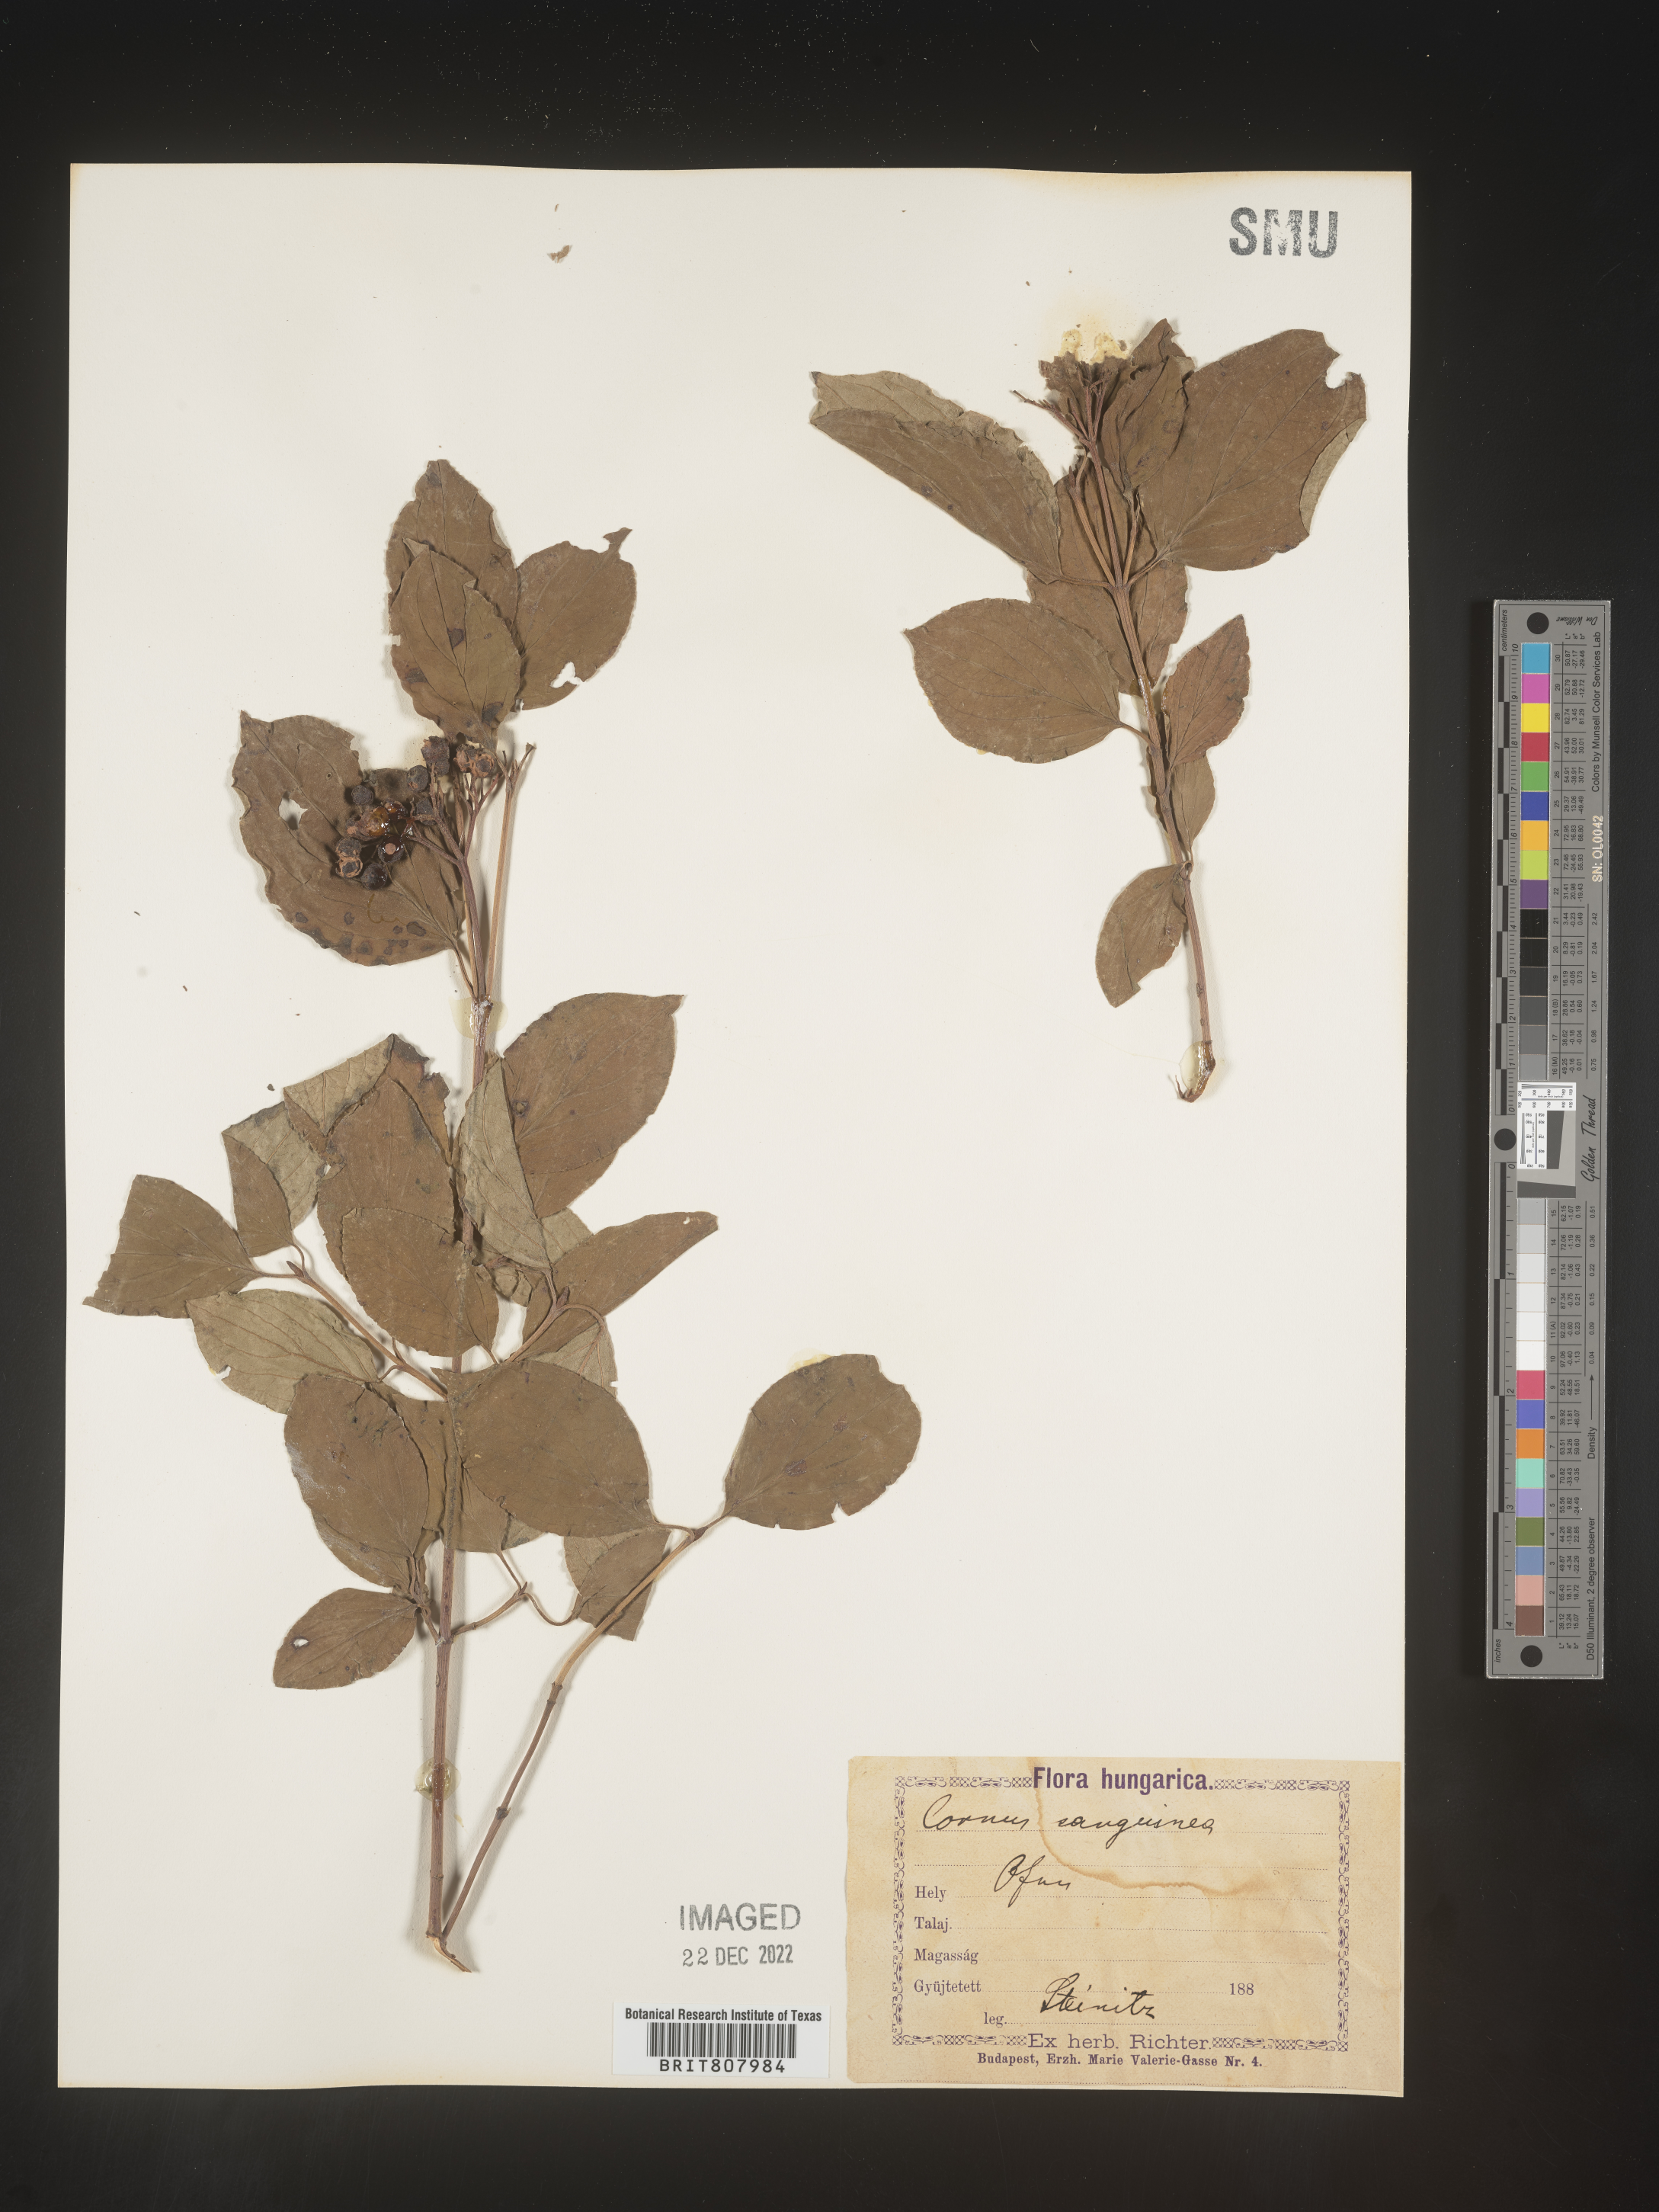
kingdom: Plantae
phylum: Tracheophyta
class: Magnoliopsida
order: Cornales
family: Cornaceae
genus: Cornus
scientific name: Cornus
